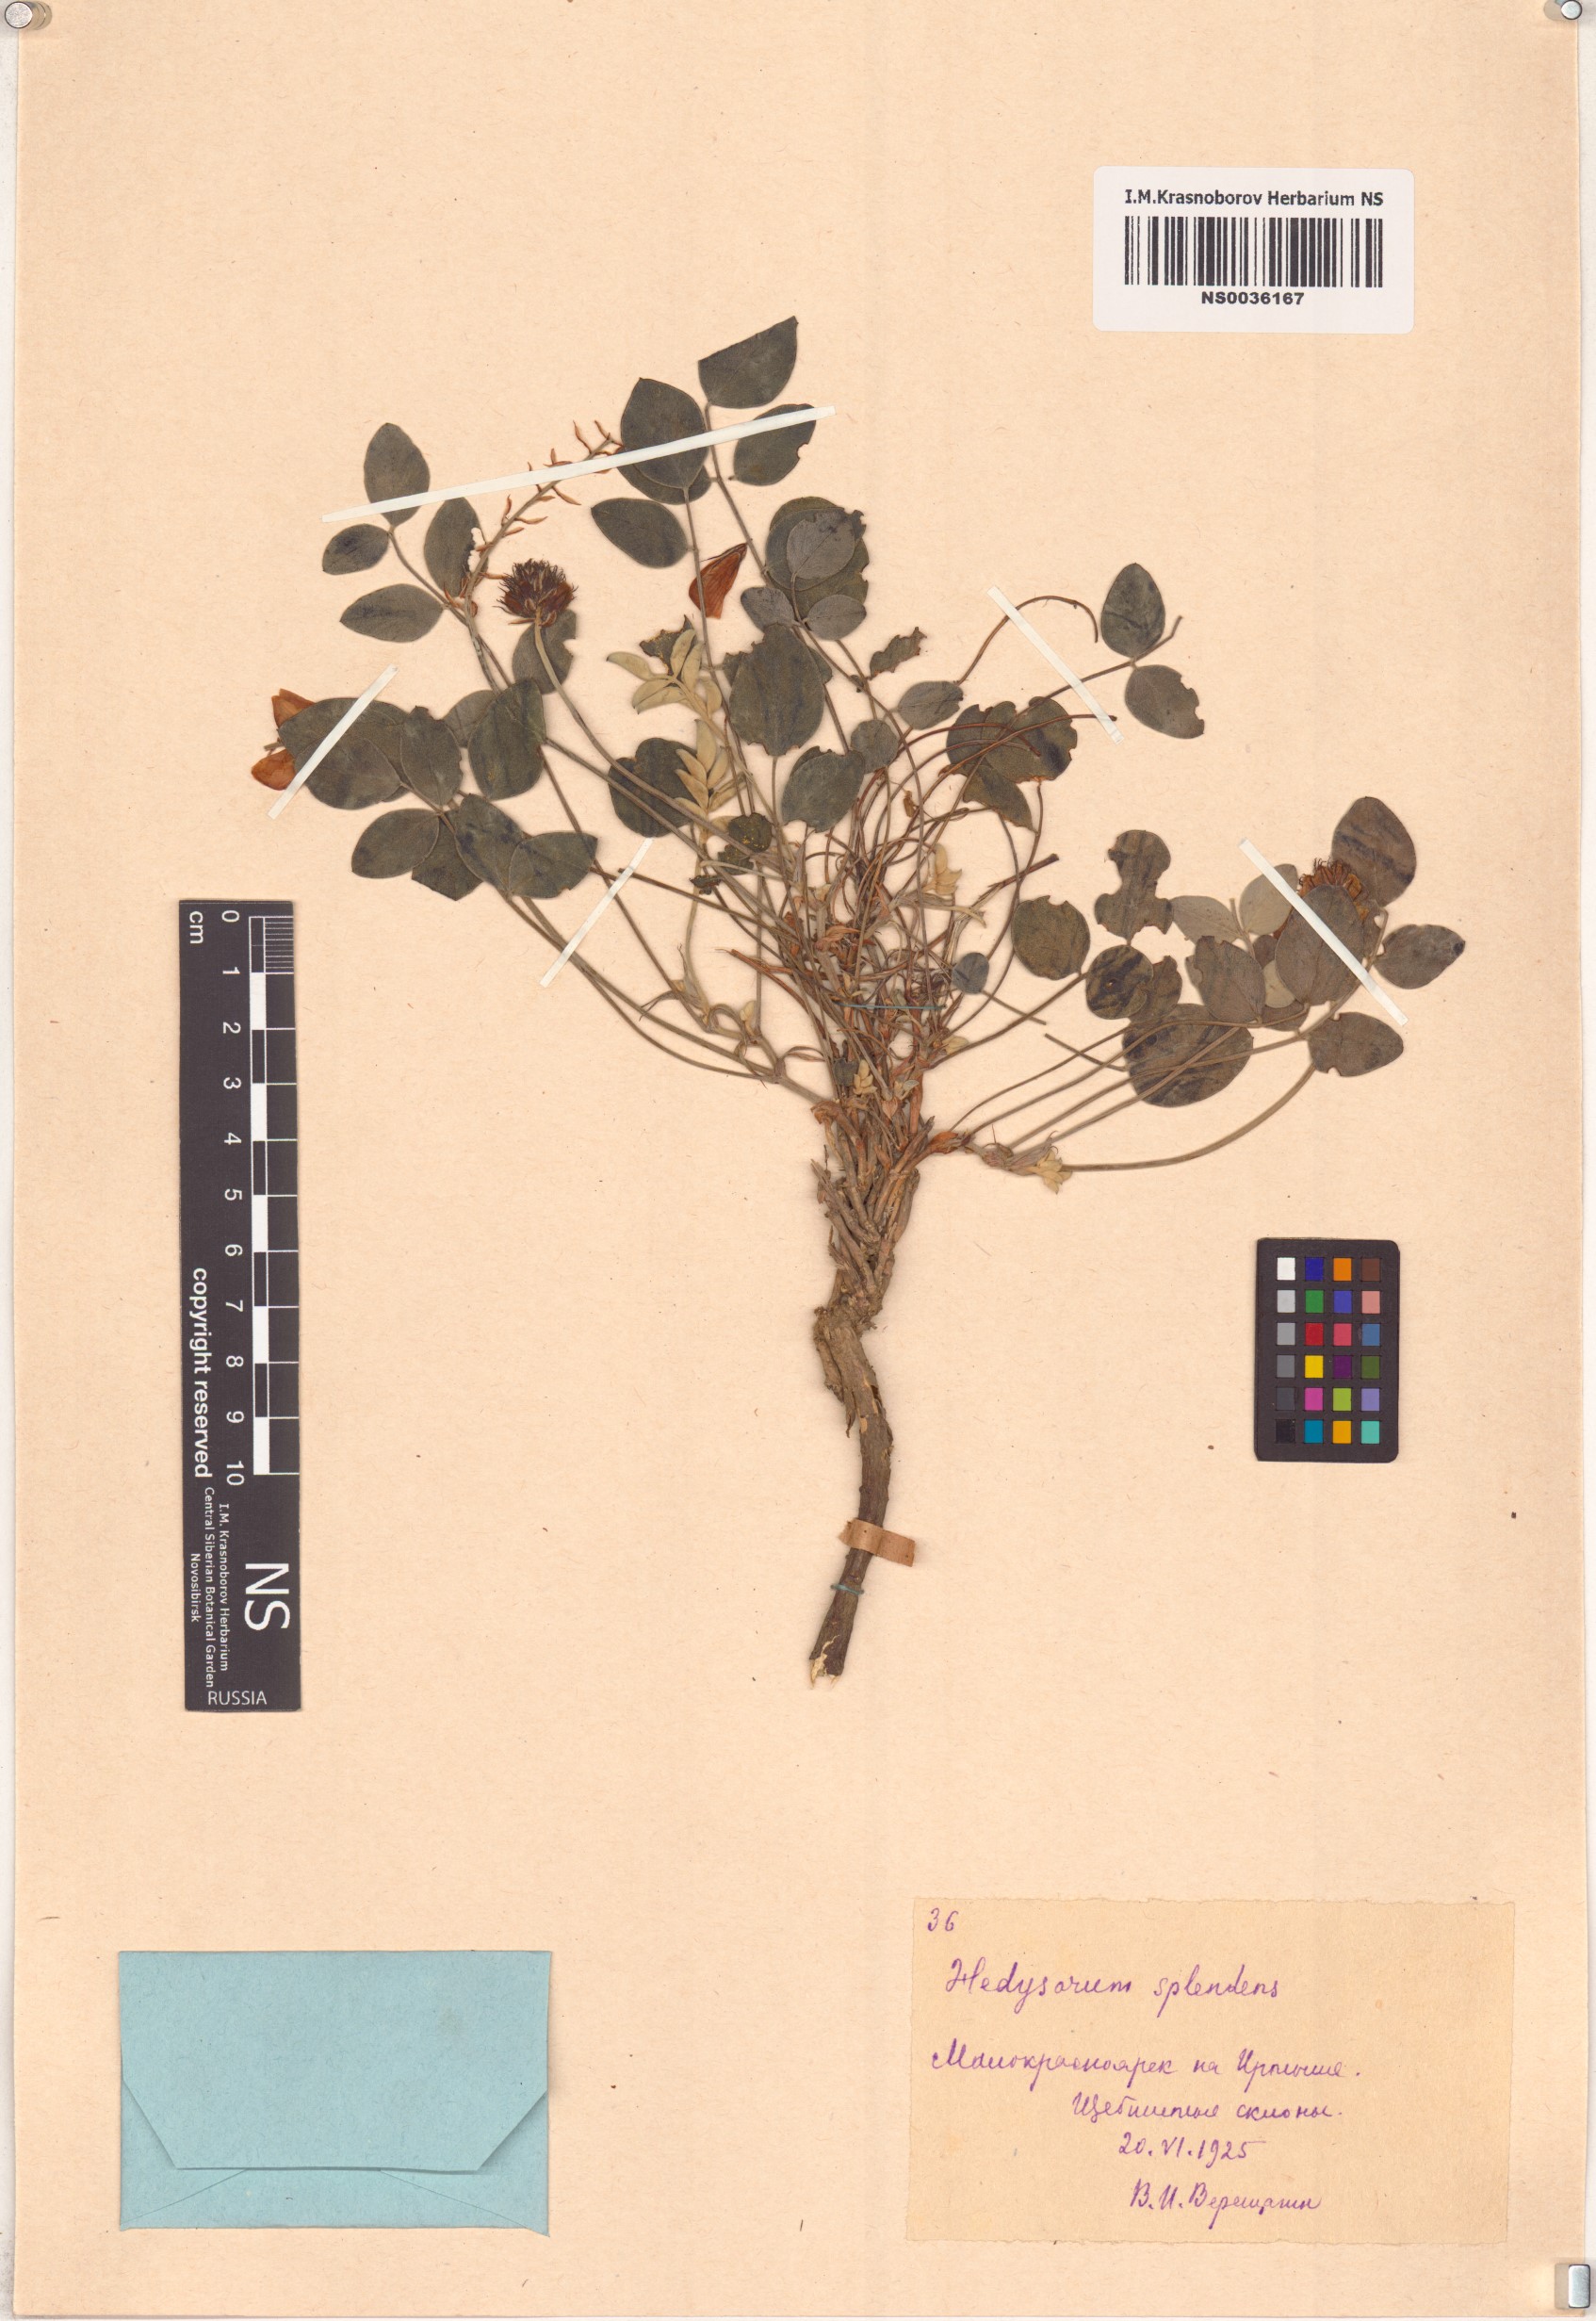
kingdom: Plantae
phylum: Tracheophyta
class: Magnoliopsida
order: Fabales
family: Fabaceae
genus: Hedysarum
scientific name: Hedysarum splendens
